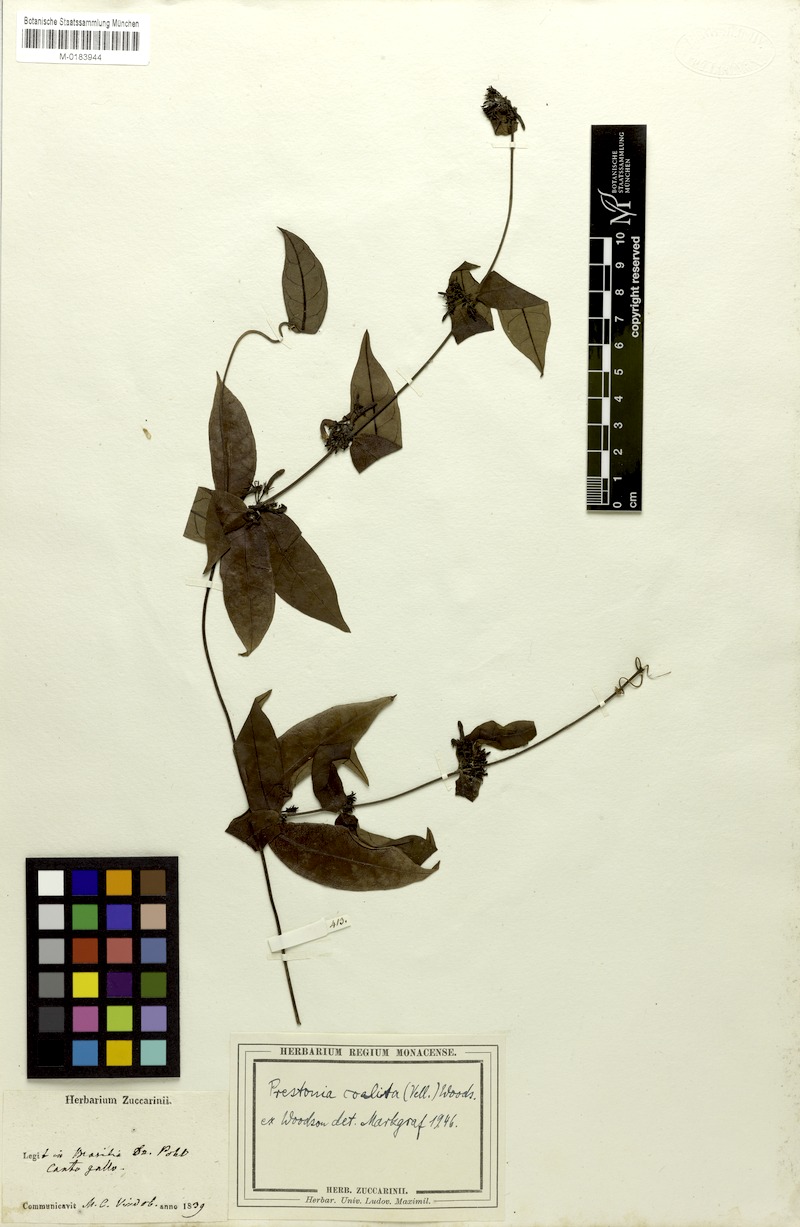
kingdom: Plantae
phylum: Tracheophyta
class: Magnoliopsida
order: Gentianales
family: Apocynaceae
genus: Prestonia
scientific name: Prestonia coalita
